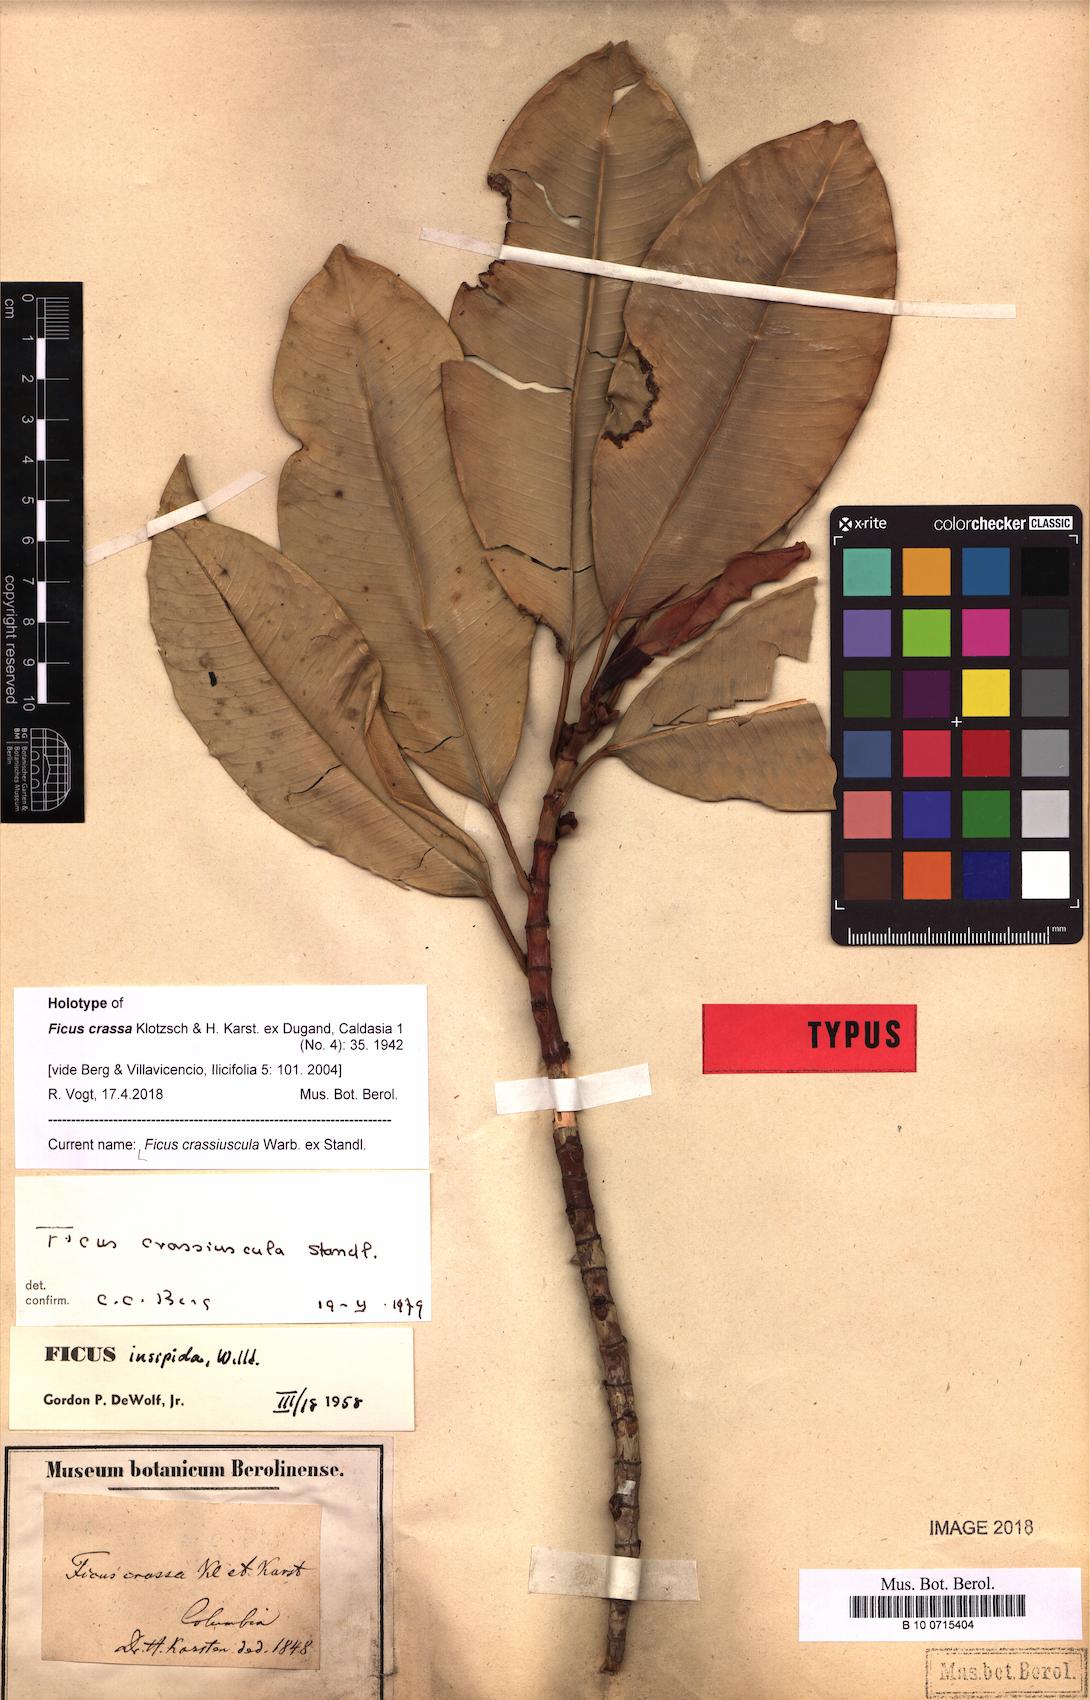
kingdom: Plantae
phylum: Tracheophyta
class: Magnoliopsida
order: Rosales
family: Moraceae
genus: Ficus
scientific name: Ficus crassiuscula
